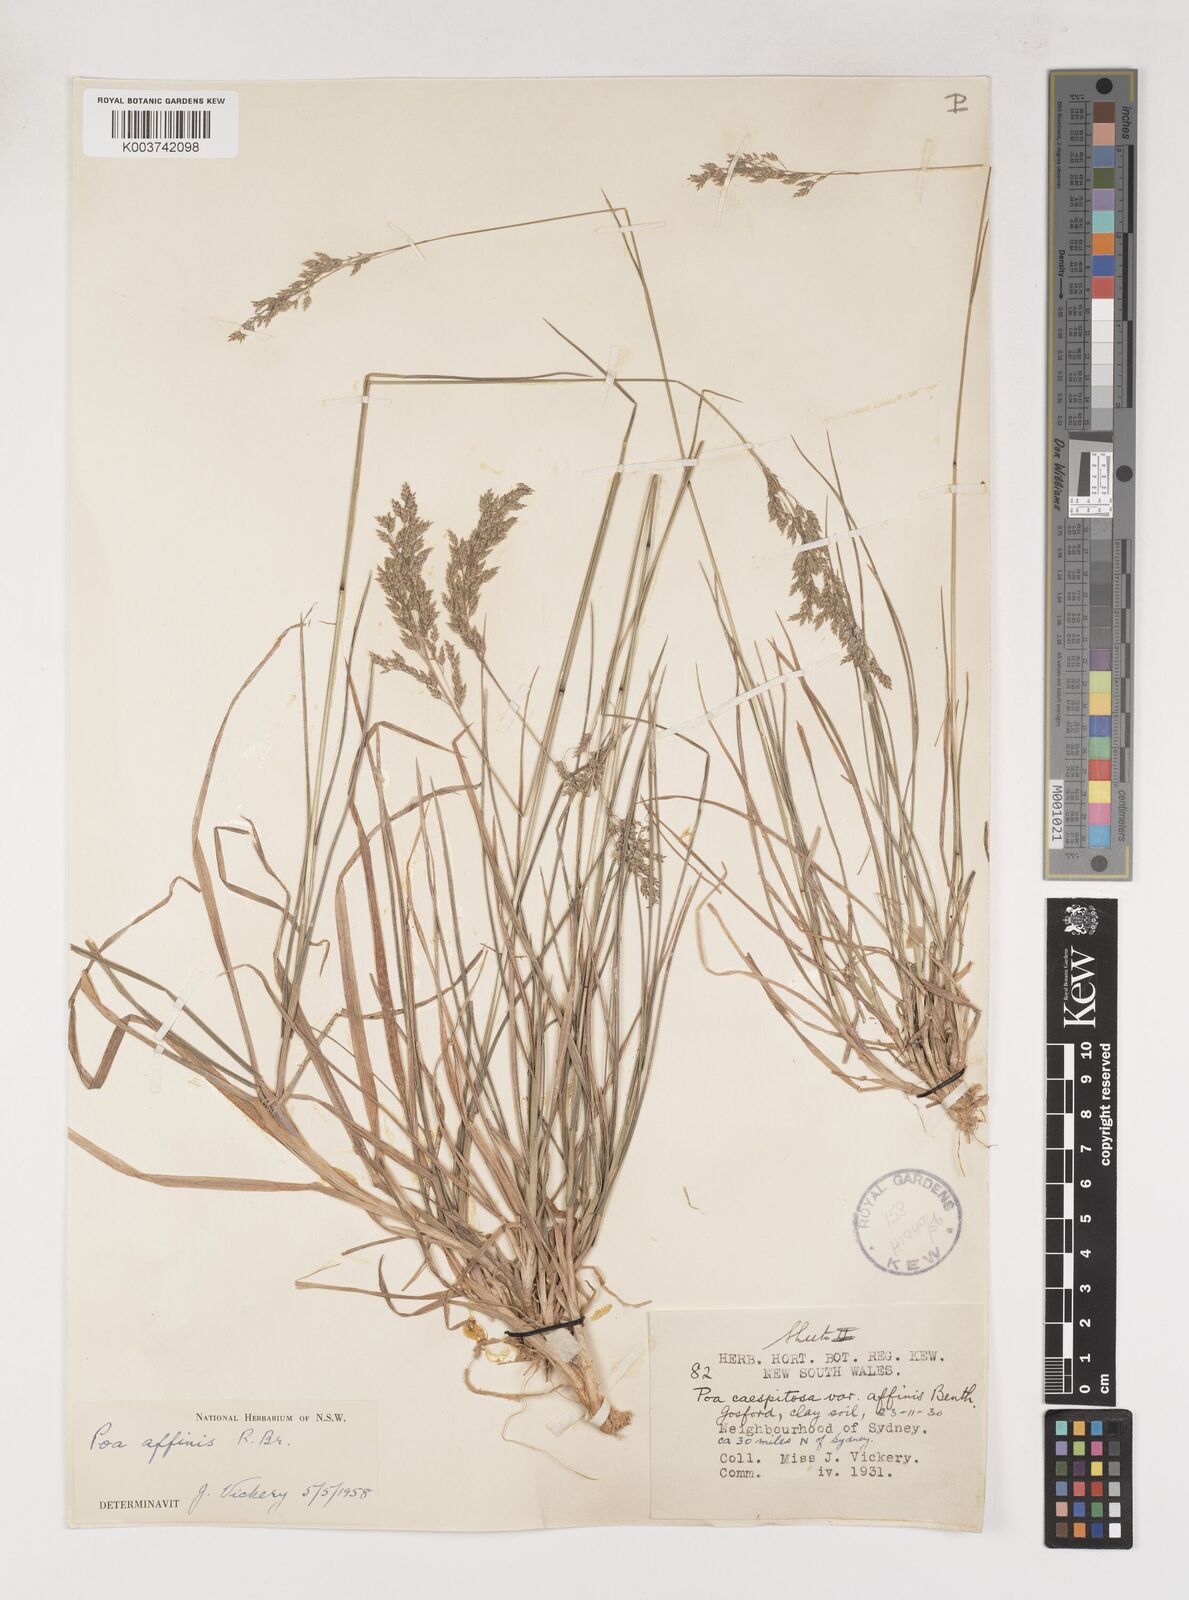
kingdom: Plantae
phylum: Tracheophyta
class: Liliopsida
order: Poales
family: Poaceae
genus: Poa
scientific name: Poa affinis
